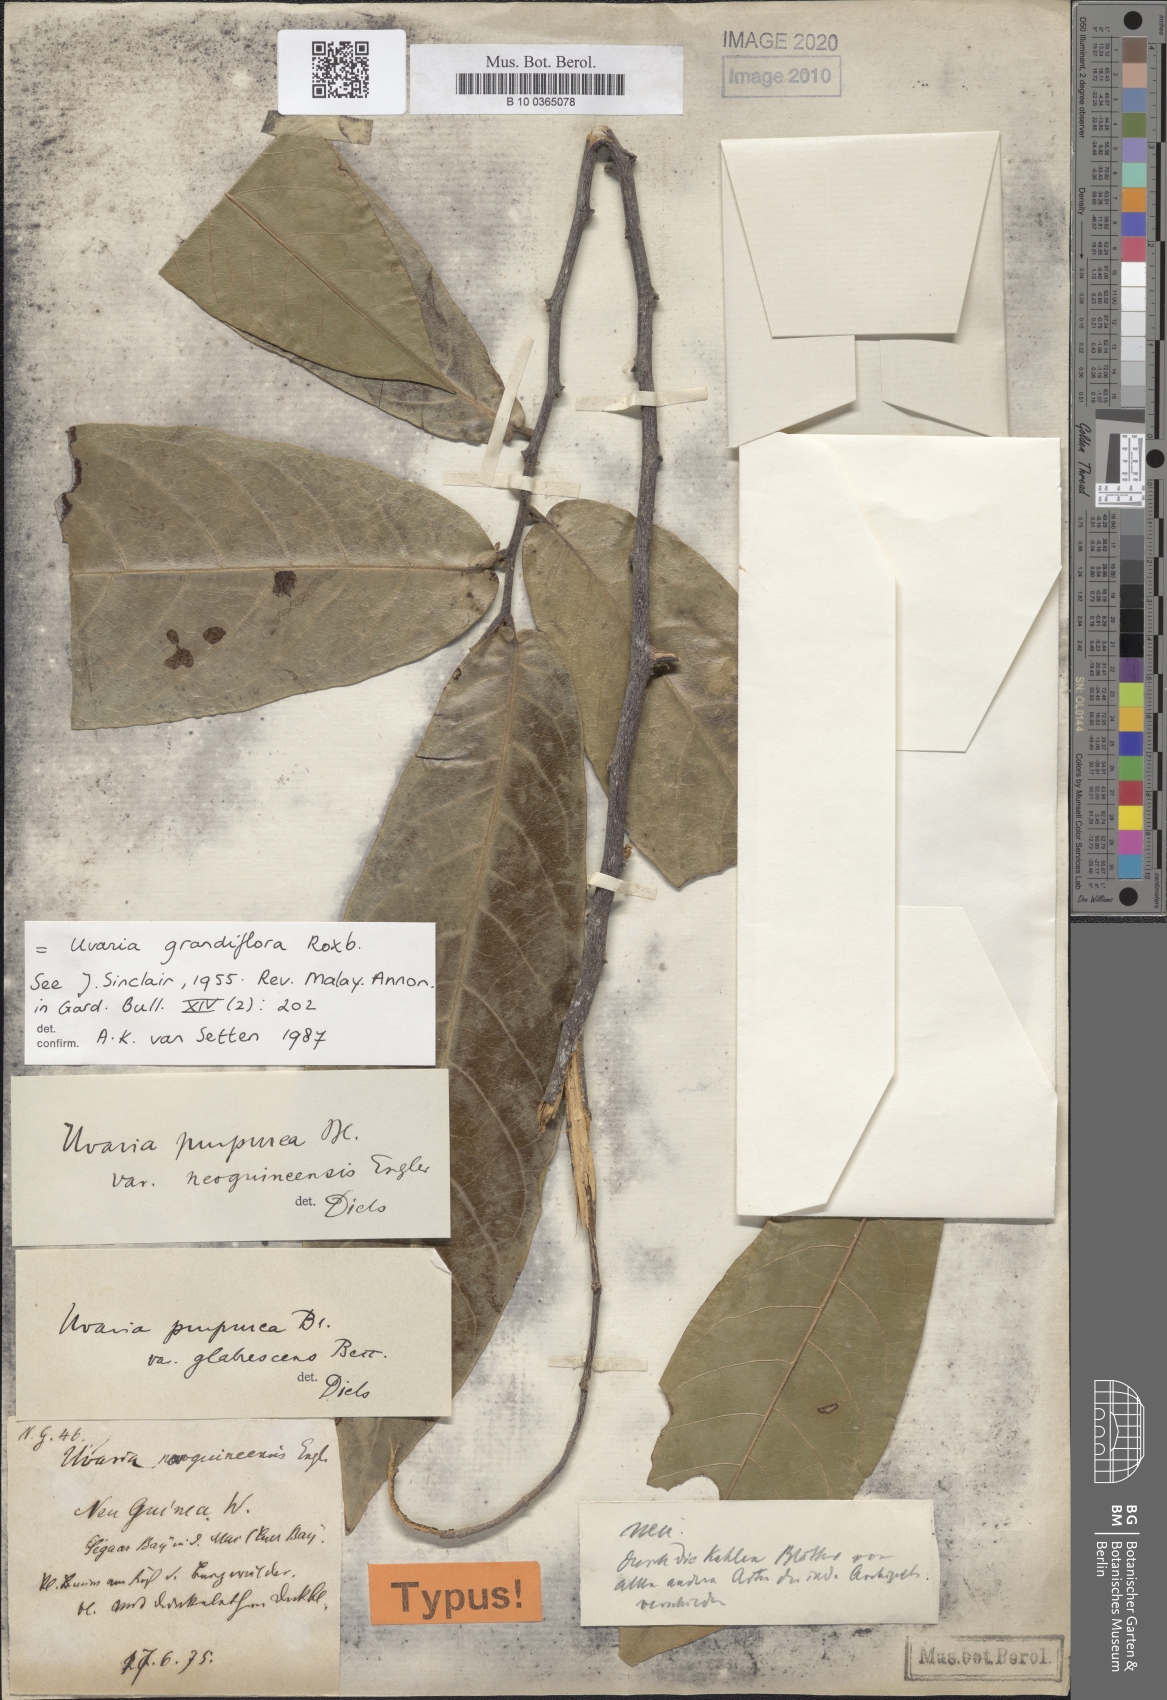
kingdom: Plantae
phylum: Tracheophyta
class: Magnoliopsida
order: Magnoliales
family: Annonaceae
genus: Uvaria
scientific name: Uvaria grandiflora
